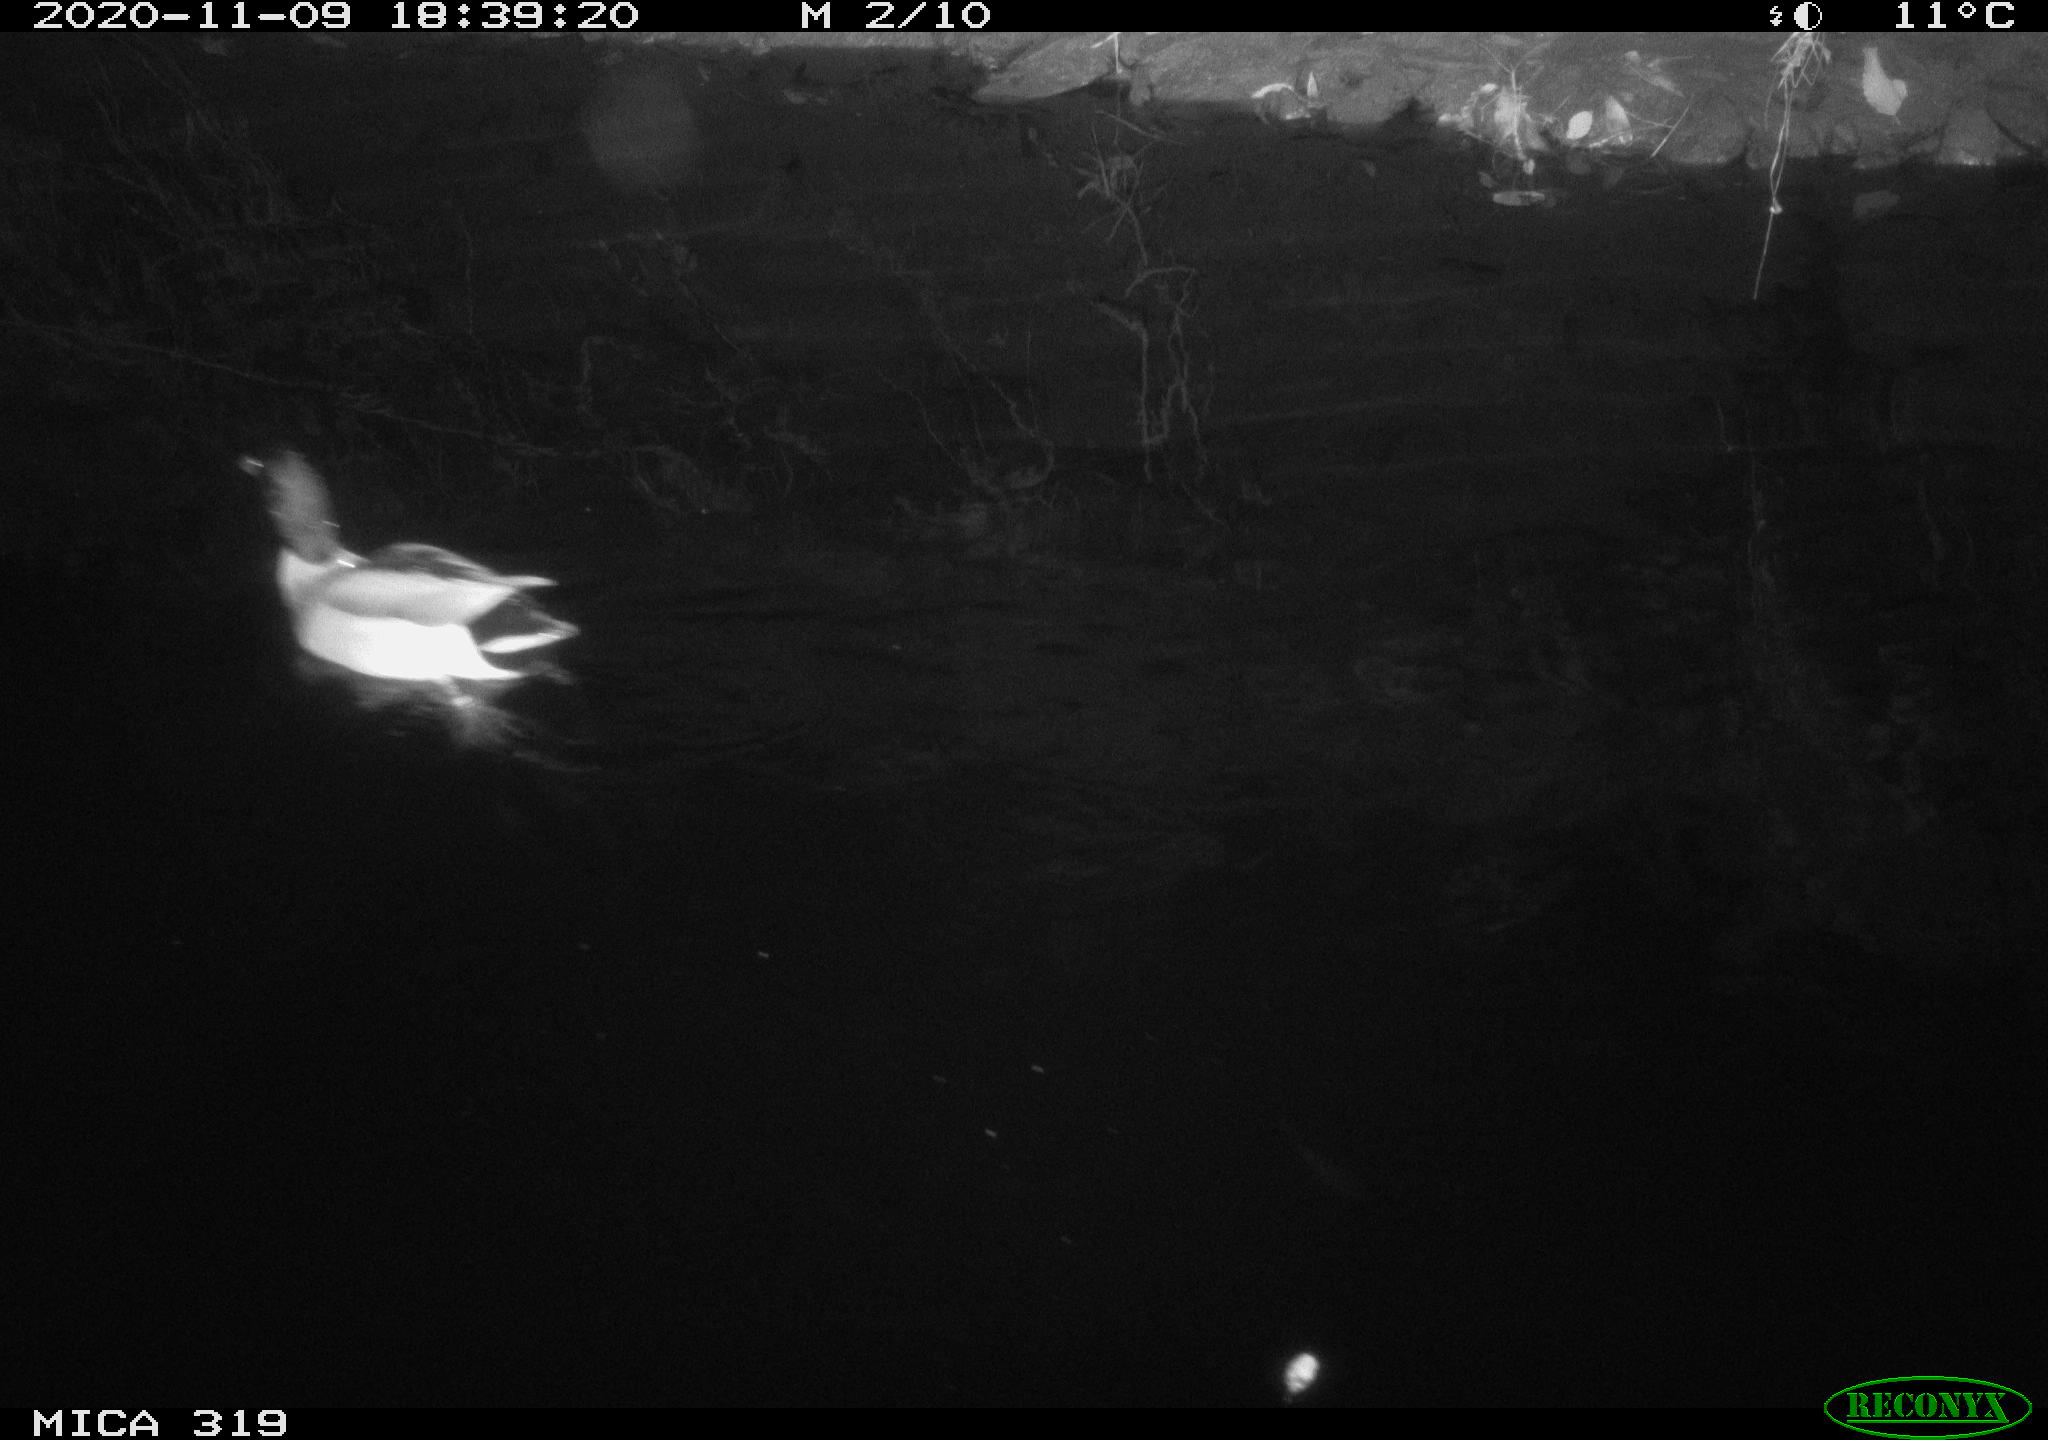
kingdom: Animalia
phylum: Chordata
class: Aves
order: Anseriformes
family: Anatidae
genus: Anas
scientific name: Anas platyrhynchos
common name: Mallard
